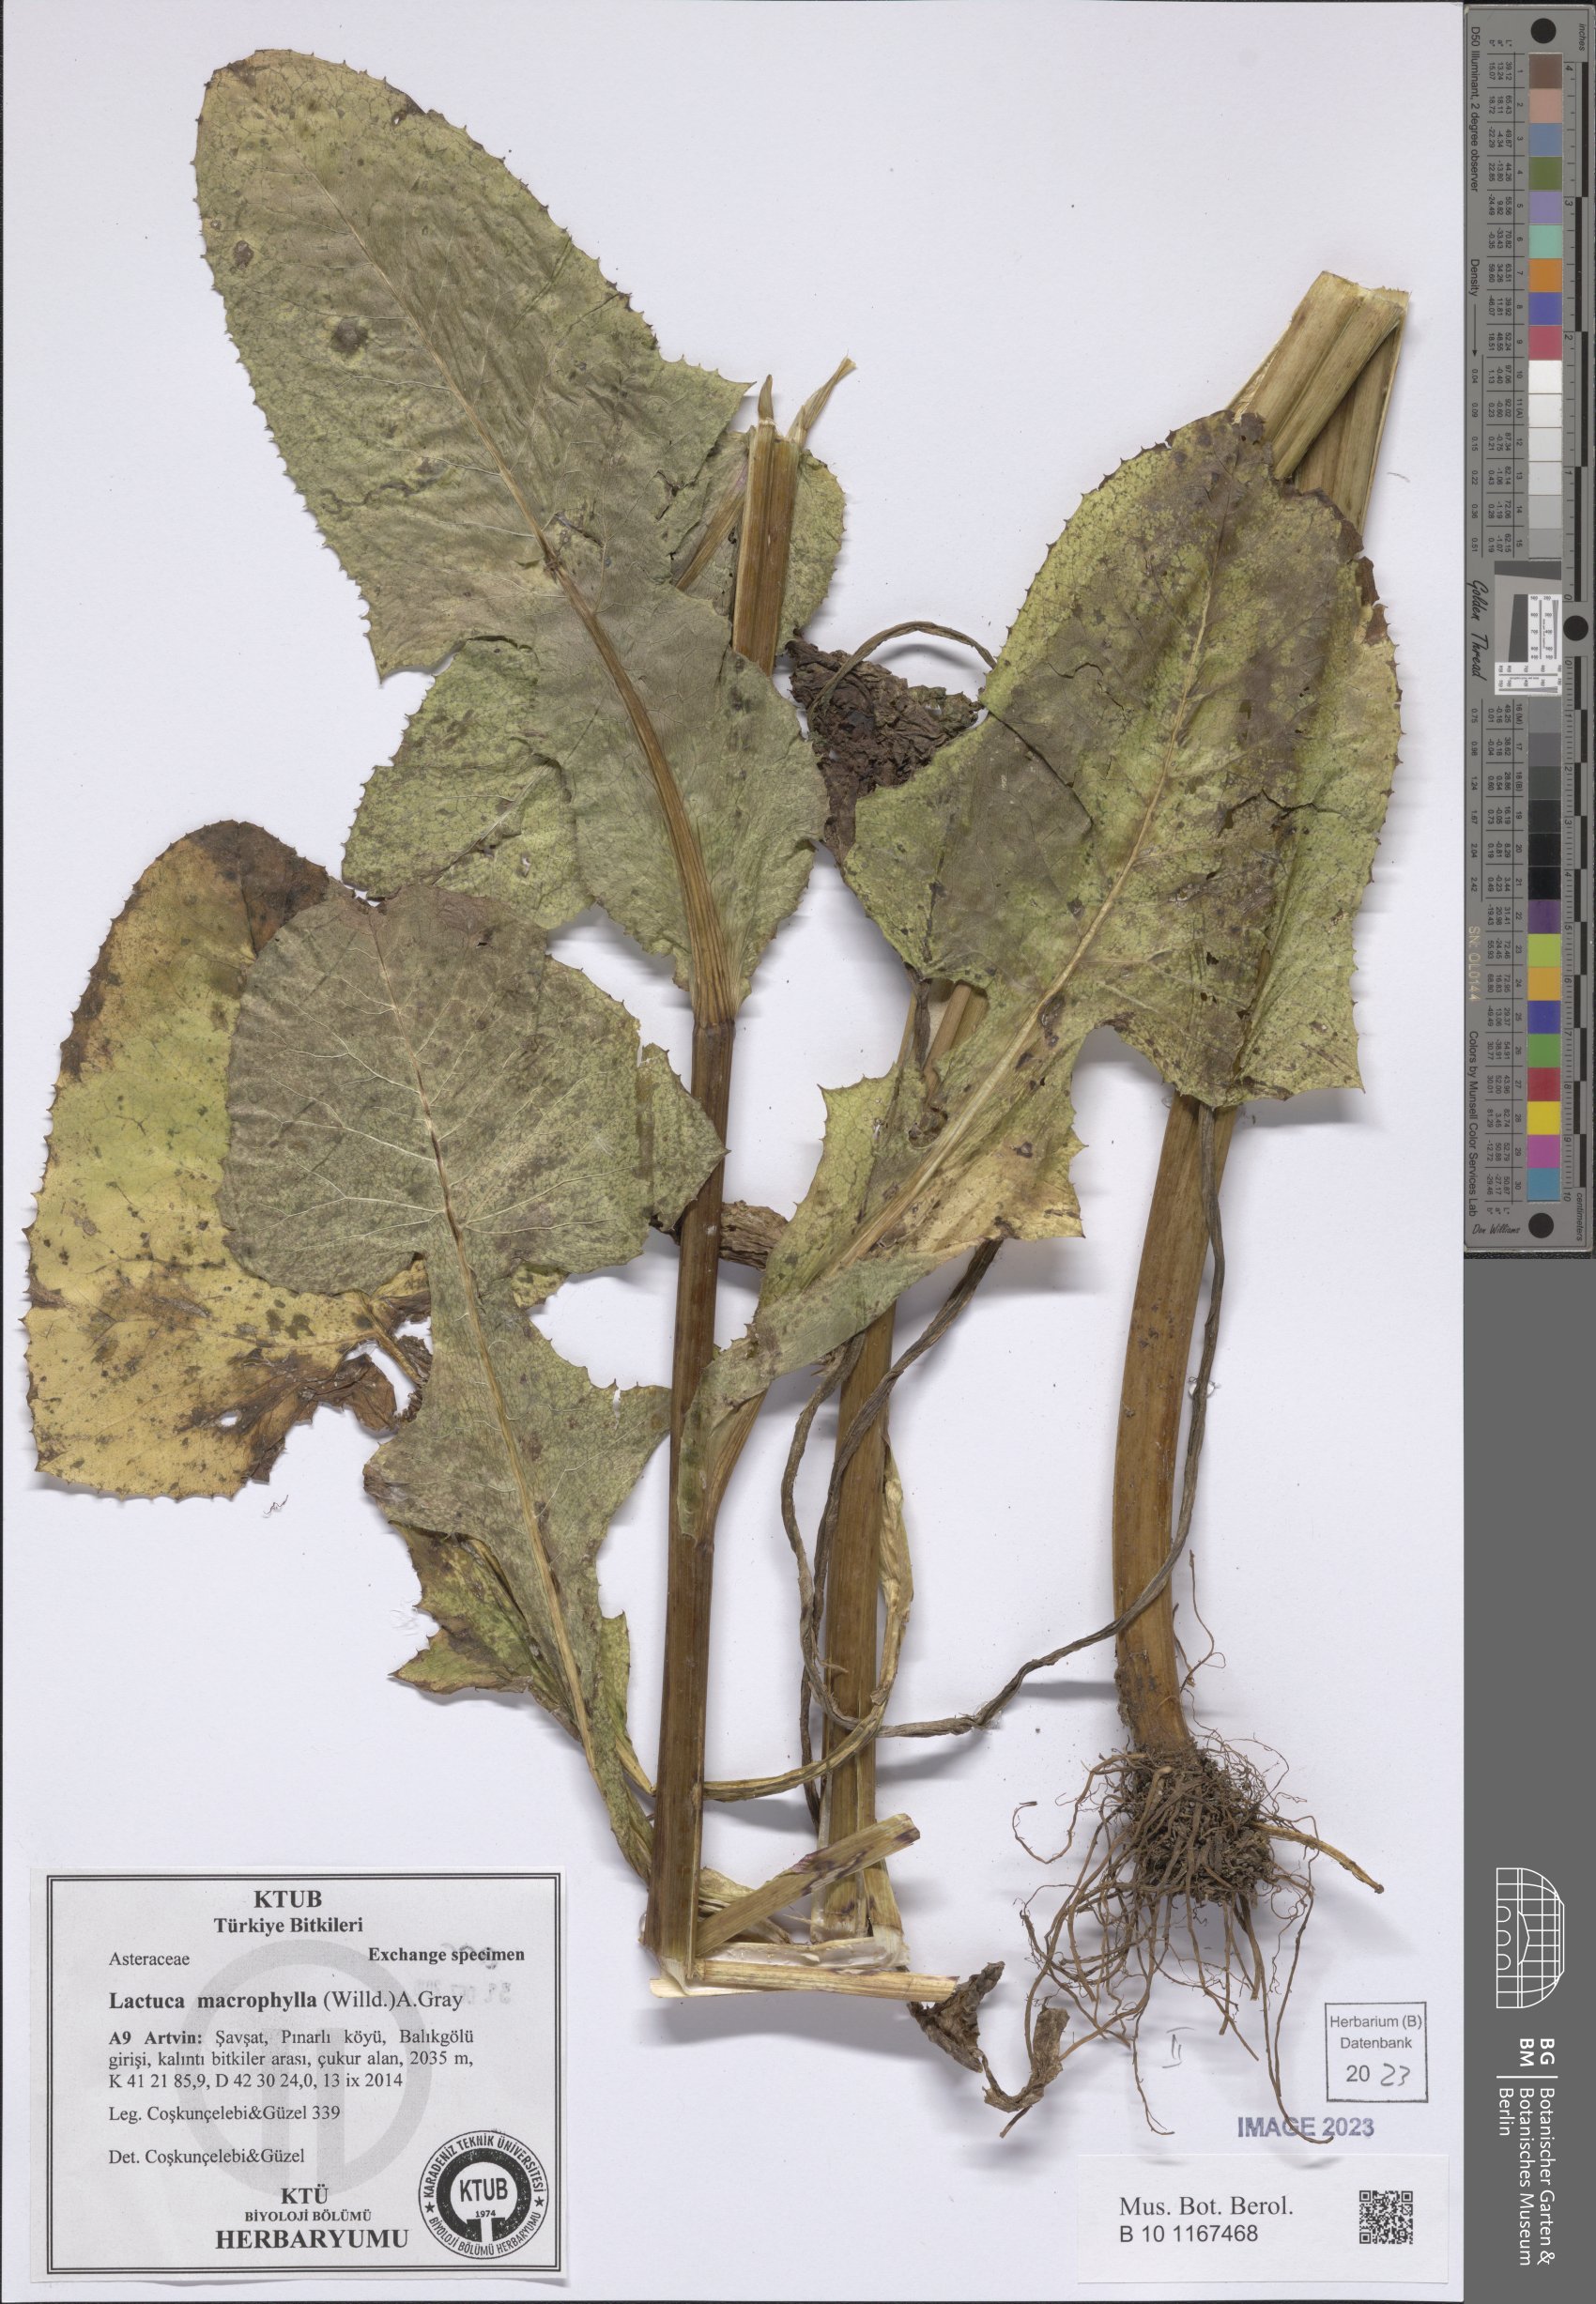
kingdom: Plantae
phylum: Tracheophyta
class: Magnoliopsida
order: Asterales
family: Asteraceae
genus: Lactuca
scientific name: Lactuca macrophylla
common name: Common blue-sow-thistle
